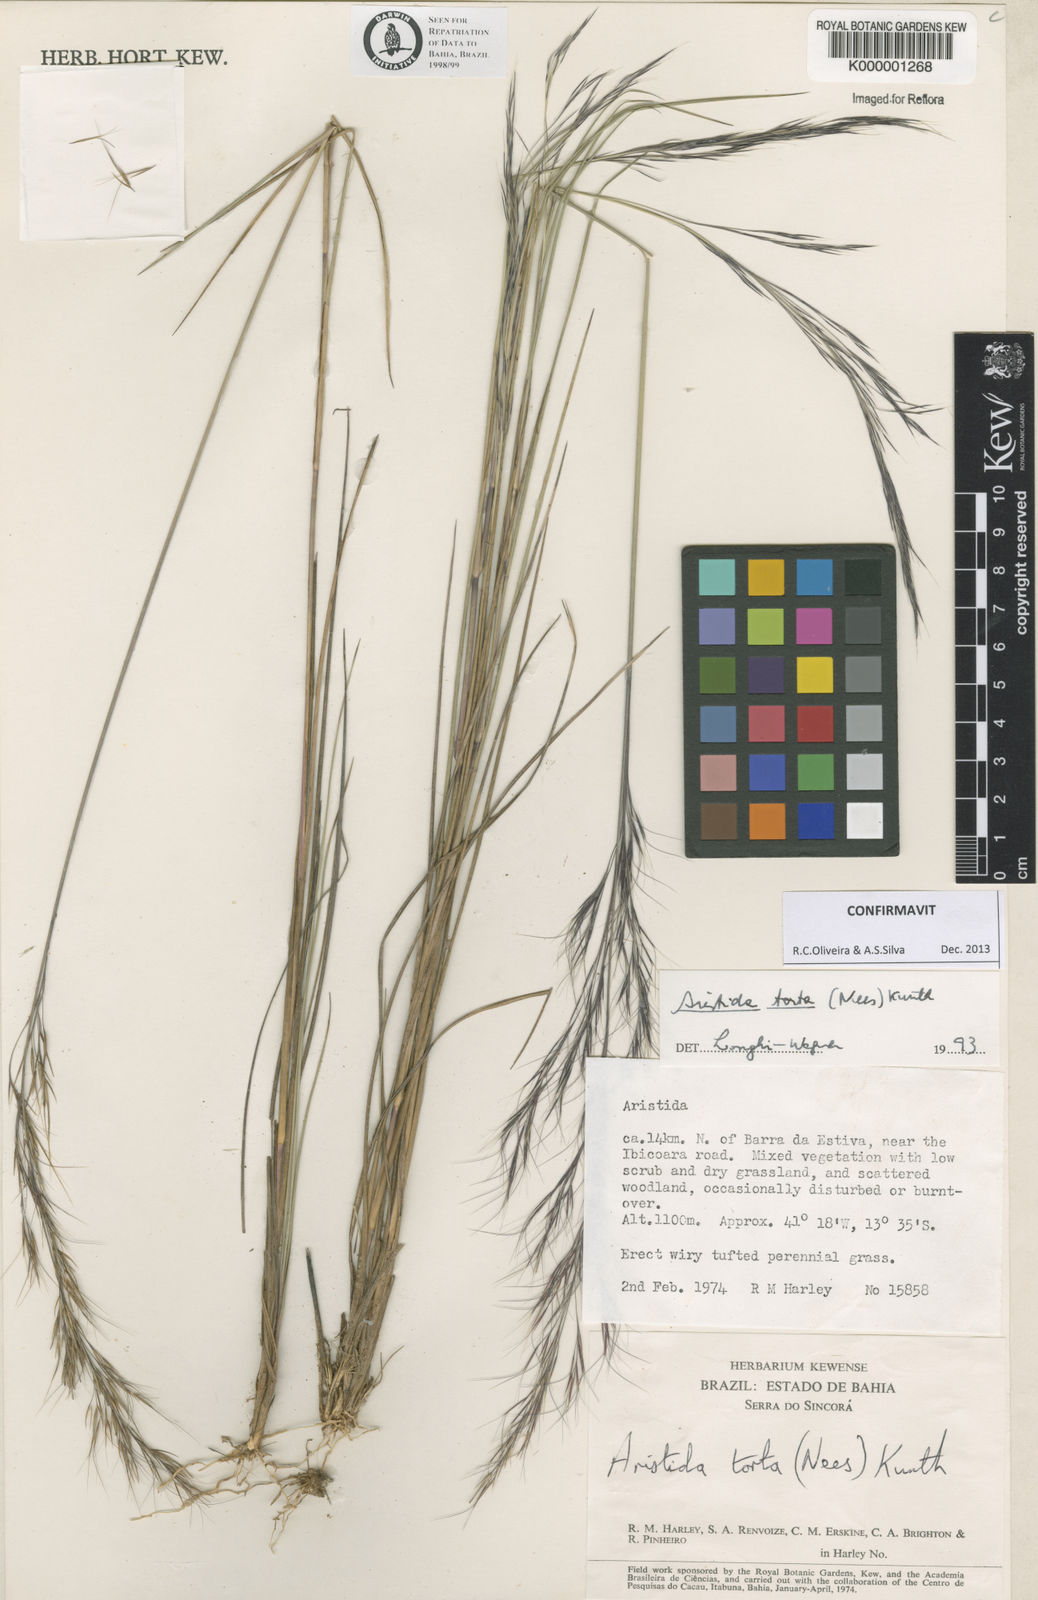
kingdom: Plantae
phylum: Tracheophyta
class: Liliopsida
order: Poales
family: Poaceae
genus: Aristida
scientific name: Aristida torta
